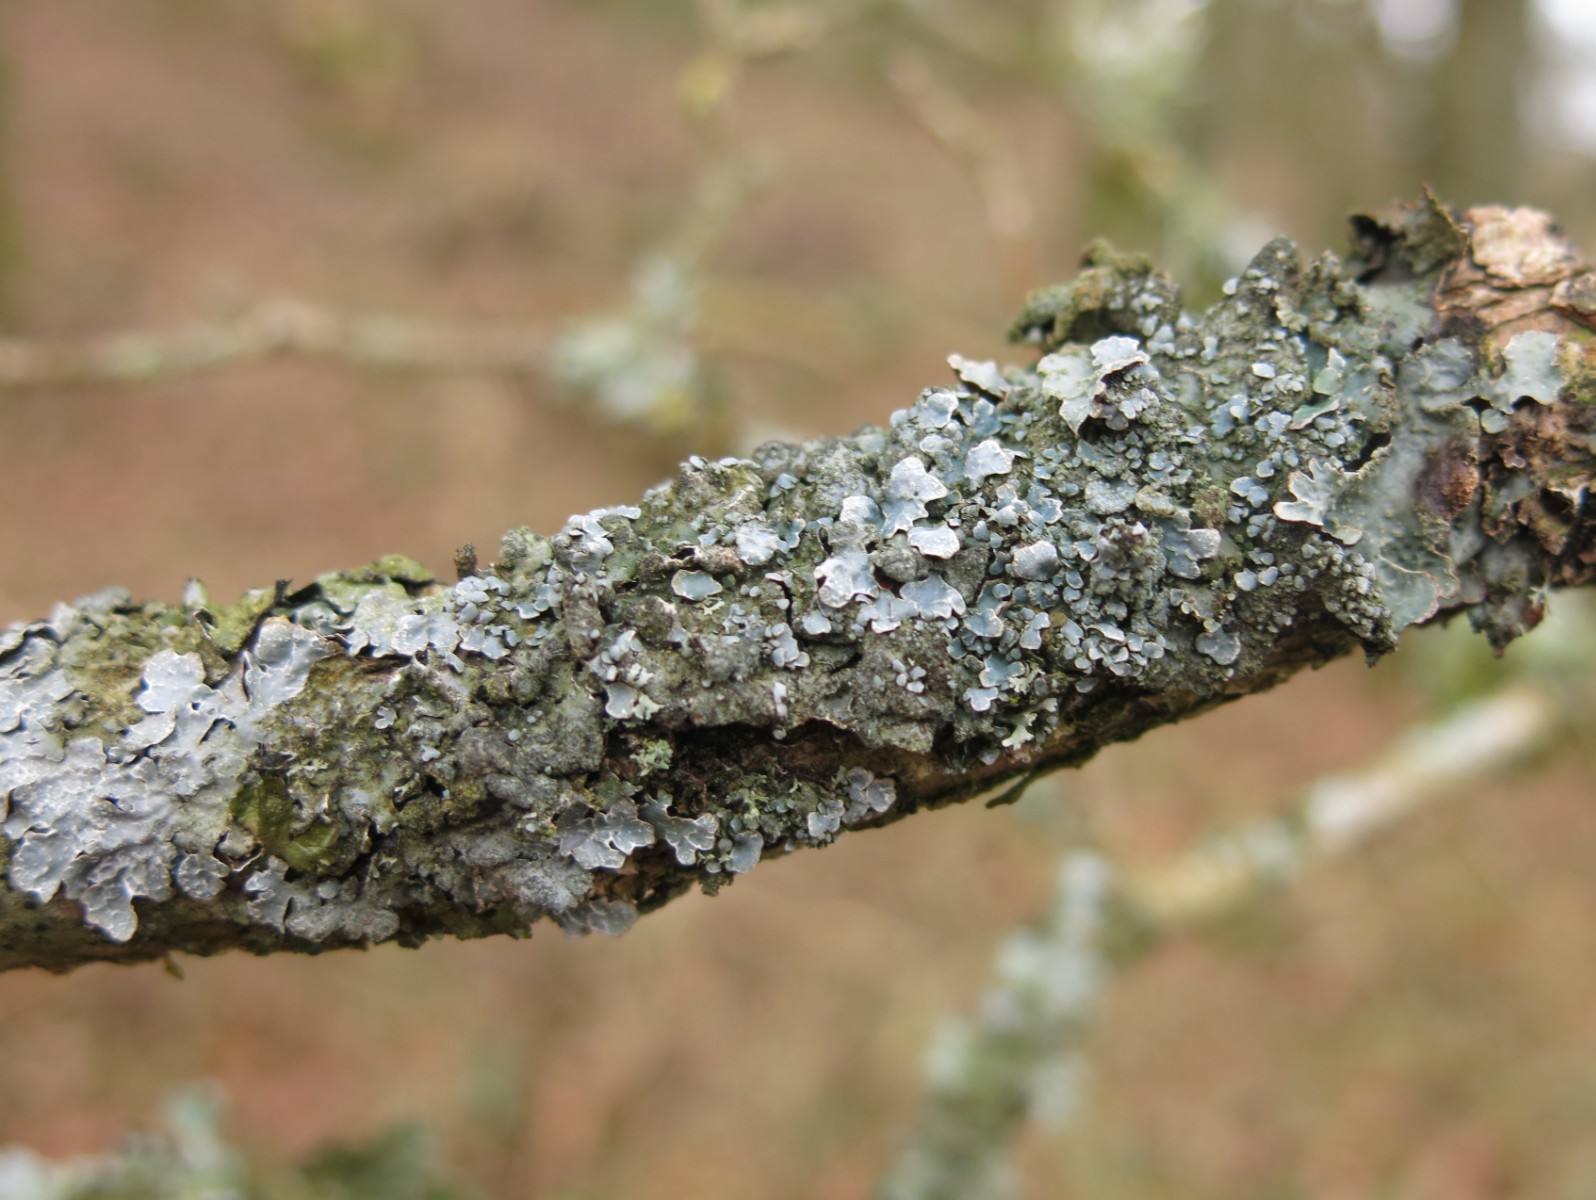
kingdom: Fungi
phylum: Ascomycota
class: Lecanoromycetes
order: Lecanorales
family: Parmeliaceae
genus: Parmelia
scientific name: Parmelia sulcata
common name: rynket skållav
